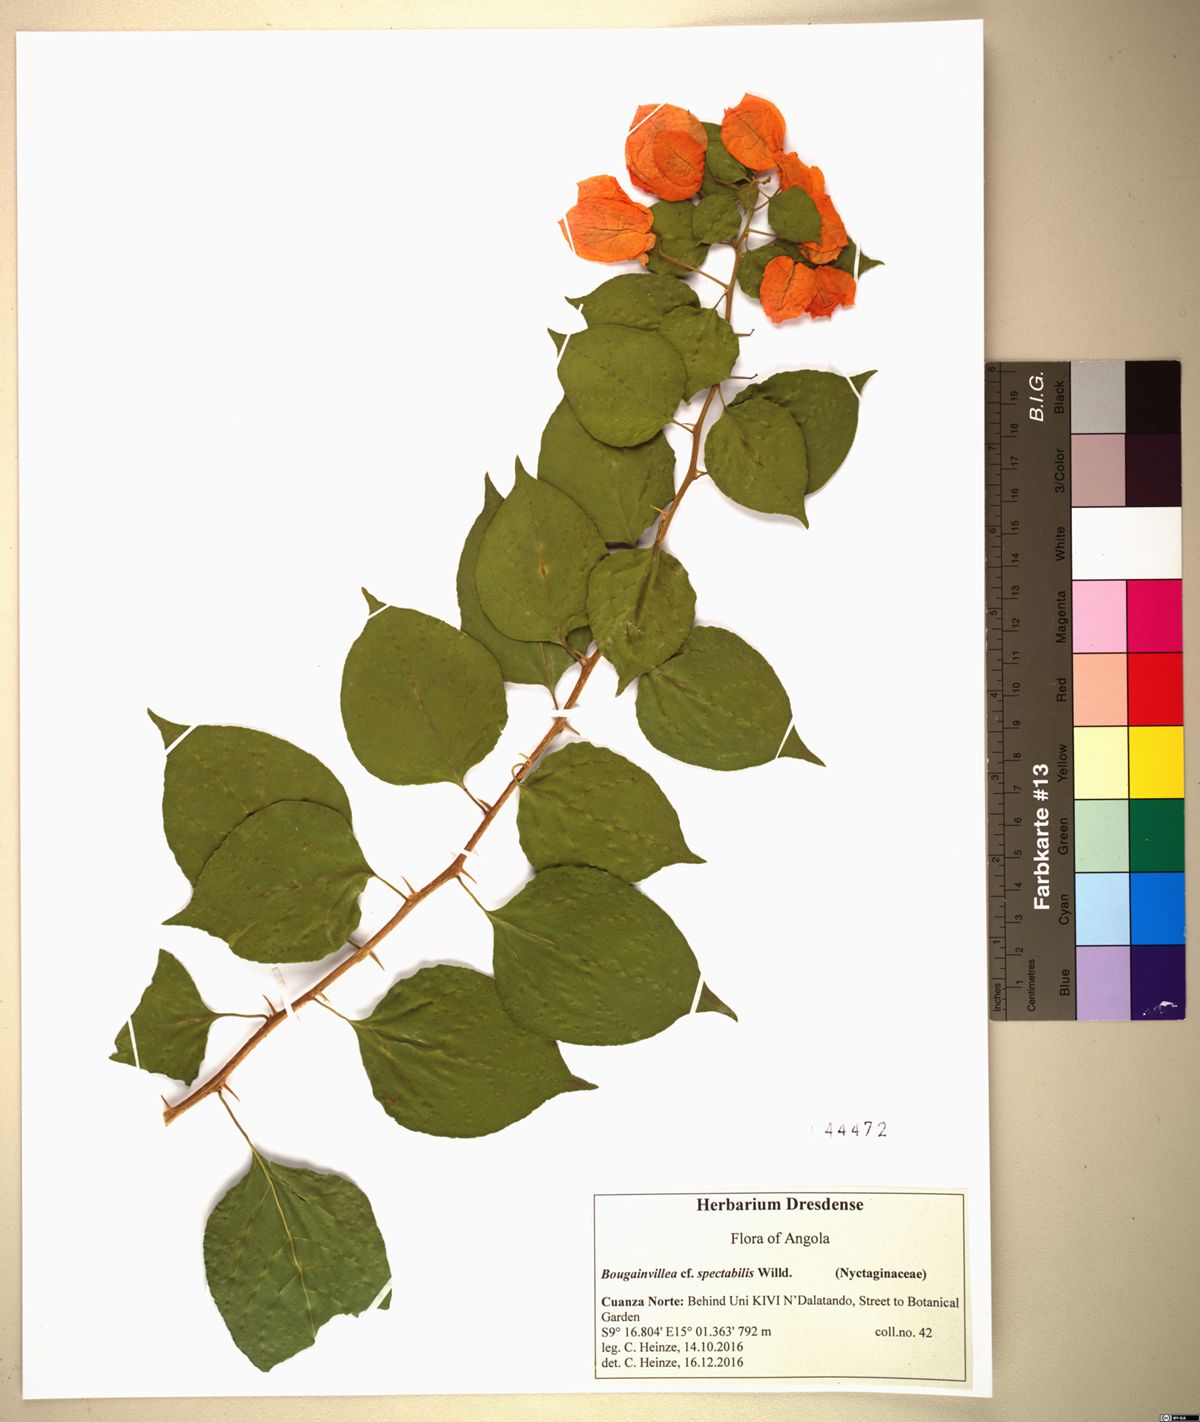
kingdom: Plantae
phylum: Tracheophyta
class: Magnoliopsida
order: Caryophyllales
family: Nyctaginaceae
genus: Bougainvillea
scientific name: Bougainvillea spectabilis
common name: Great bougainvillea
